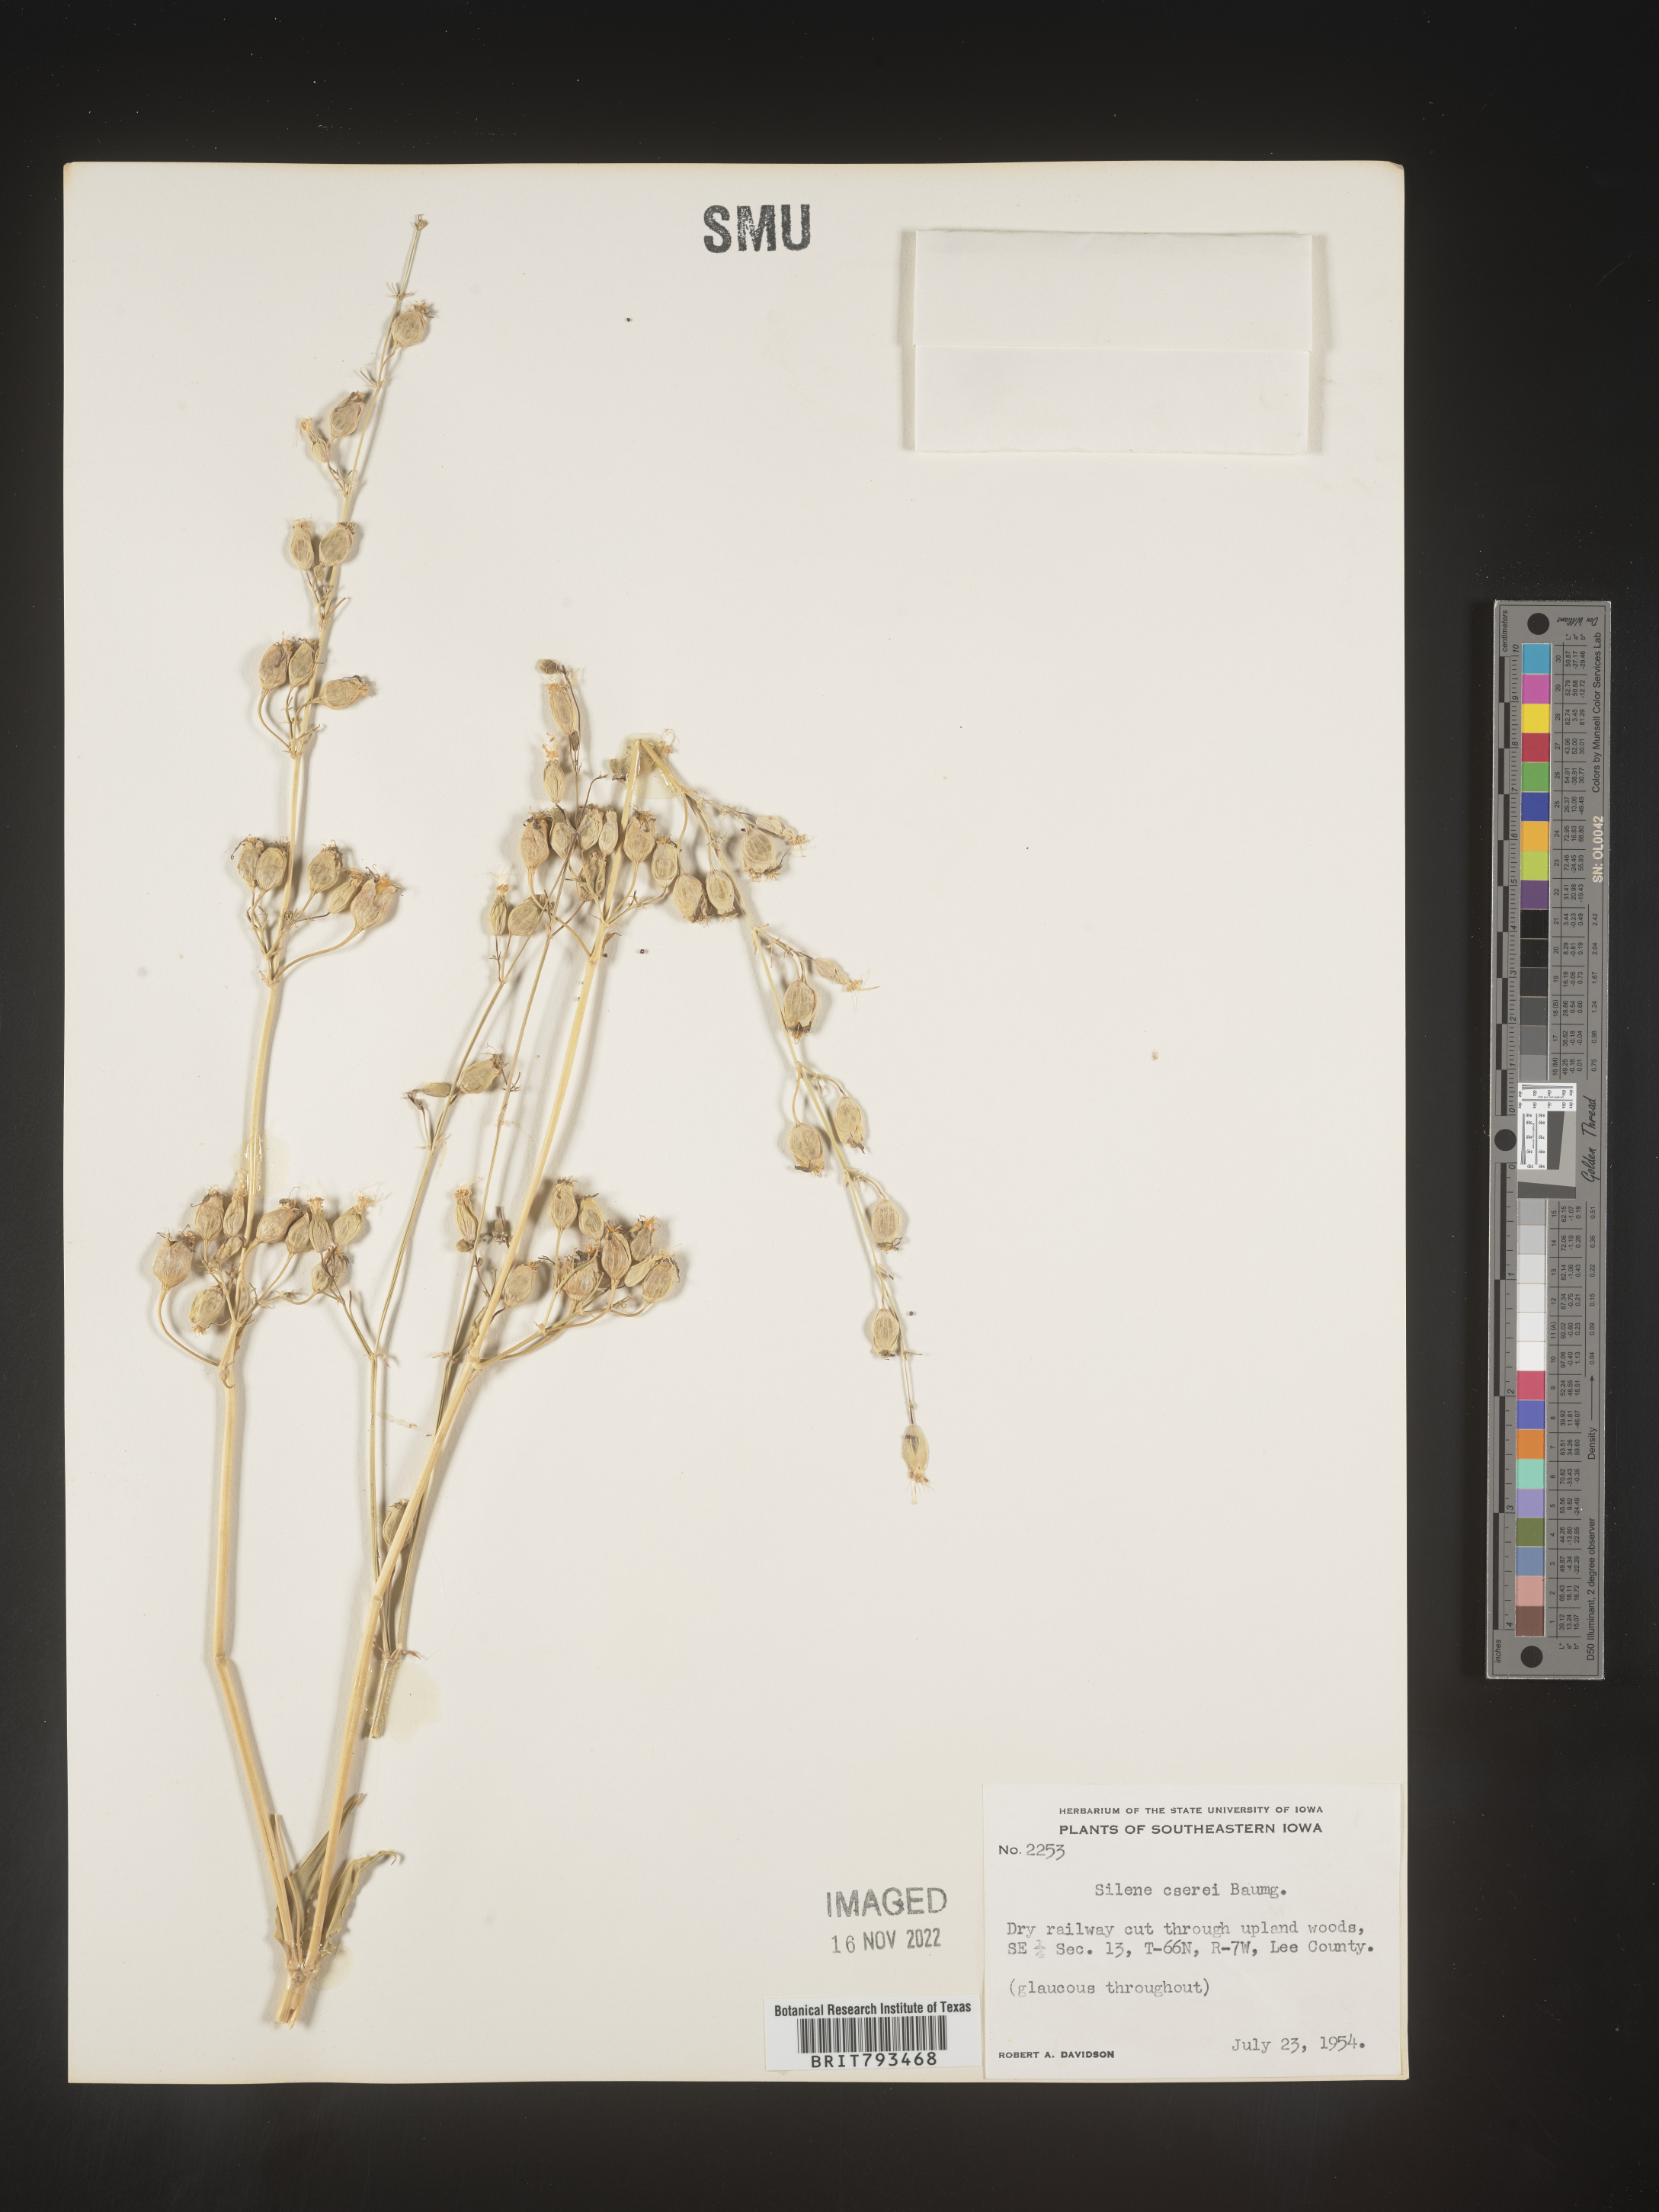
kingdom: Plantae
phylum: Tracheophyta
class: Magnoliopsida
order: Caryophyllales
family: Caryophyllaceae
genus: Silene
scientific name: Silene csereii
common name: Balkan catchfly
